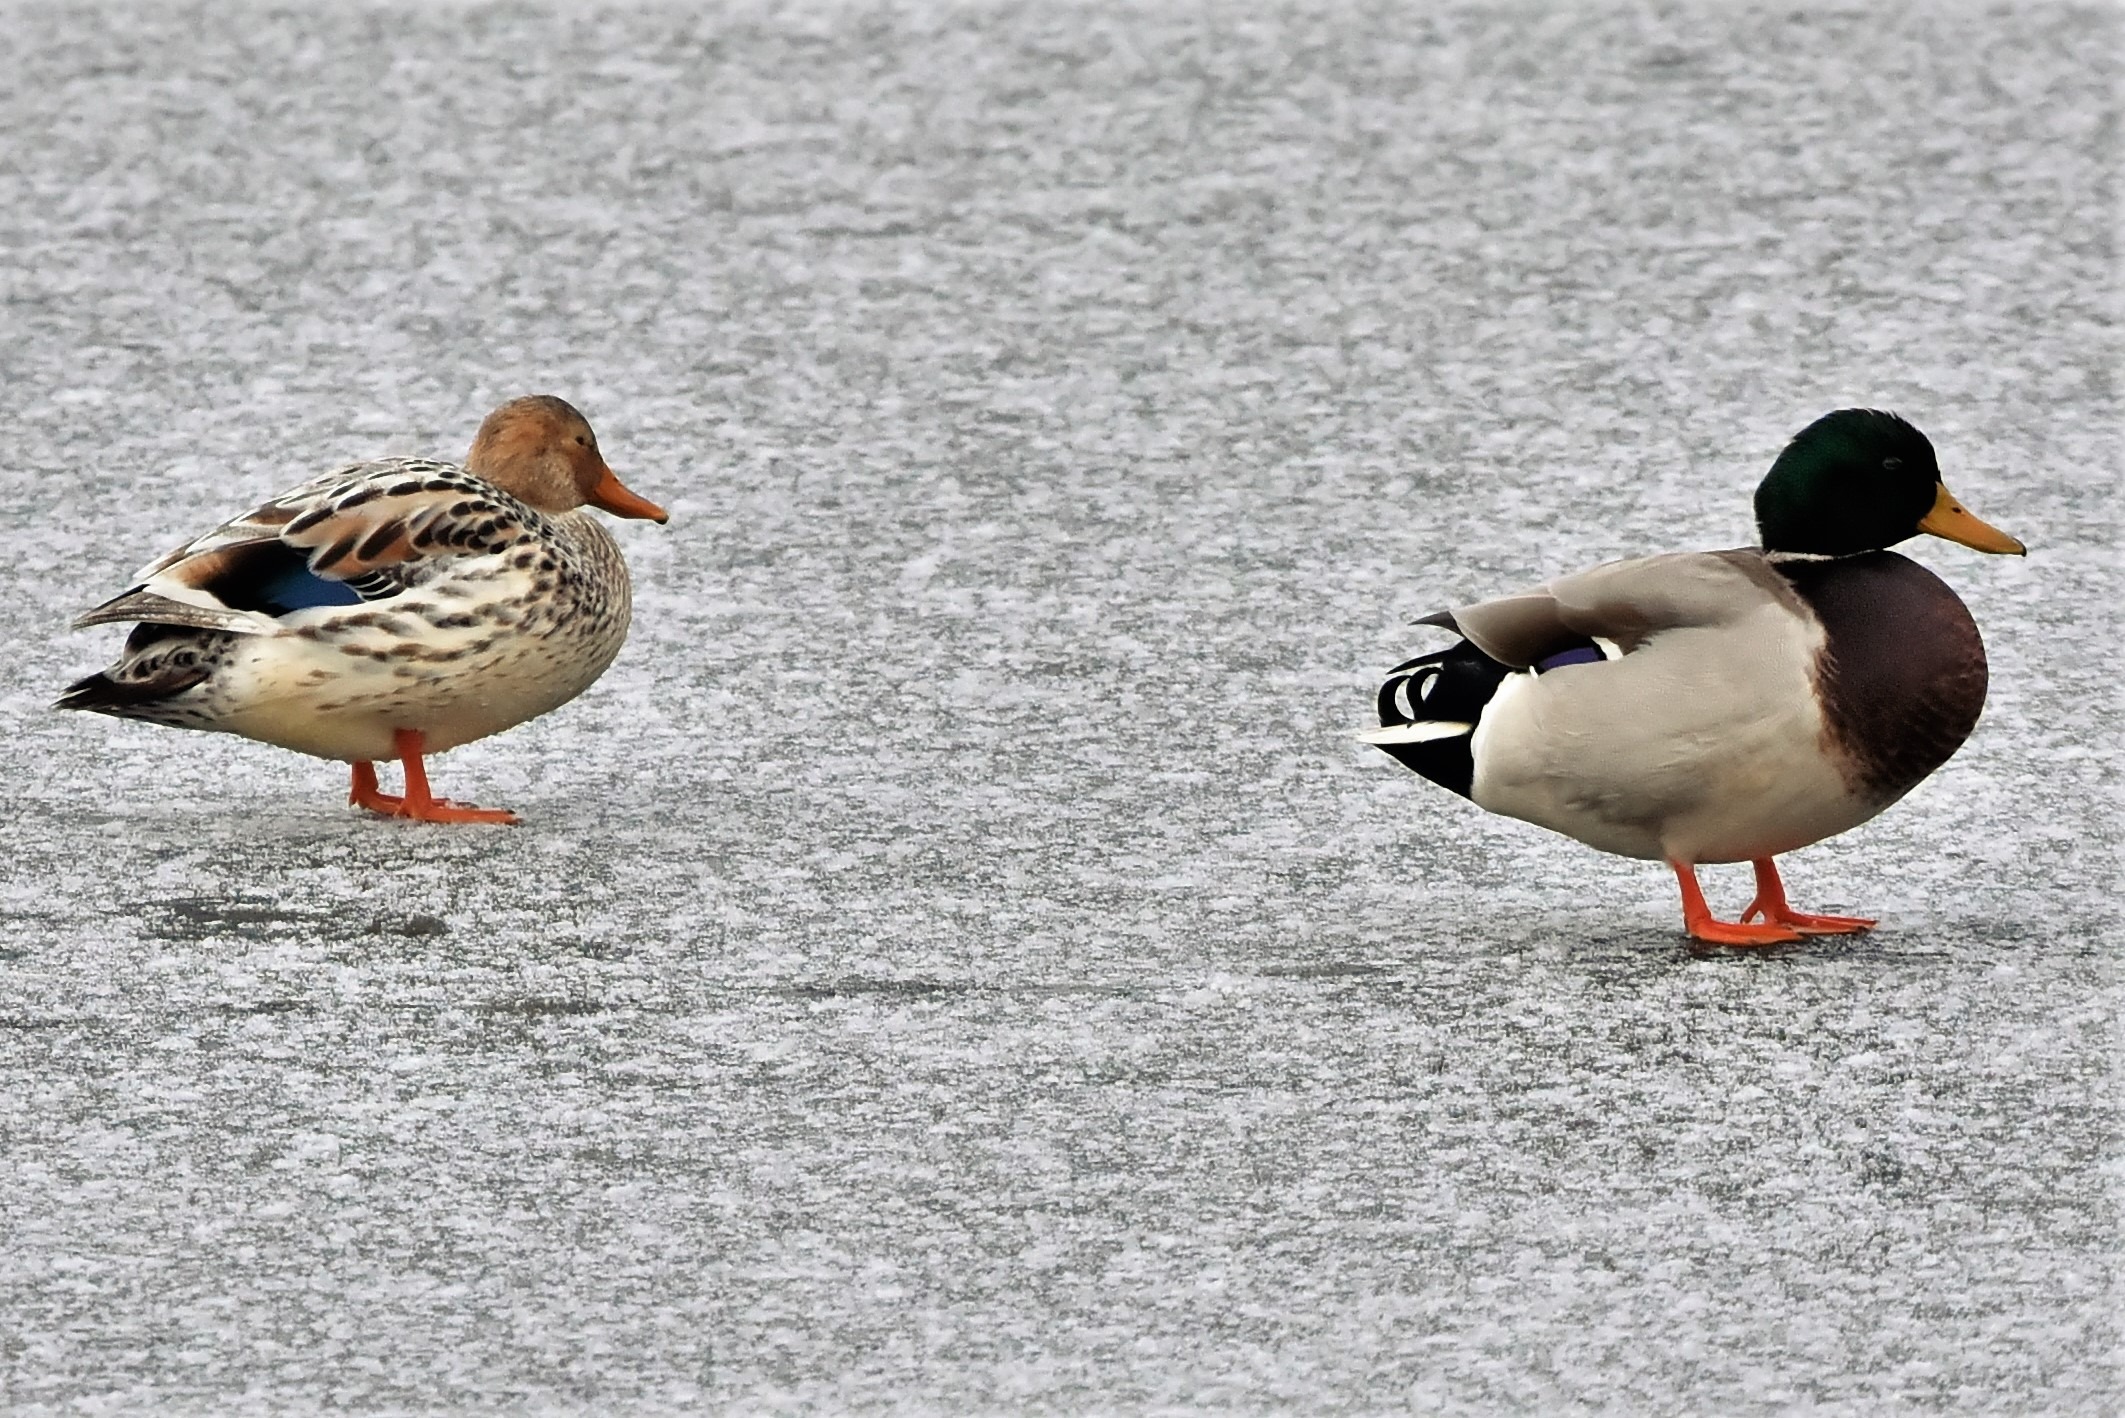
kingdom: Animalia
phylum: Chordata
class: Aves
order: Anseriformes
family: Anatidae
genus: Anas
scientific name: Anas platyrhynchos
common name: Gråand
